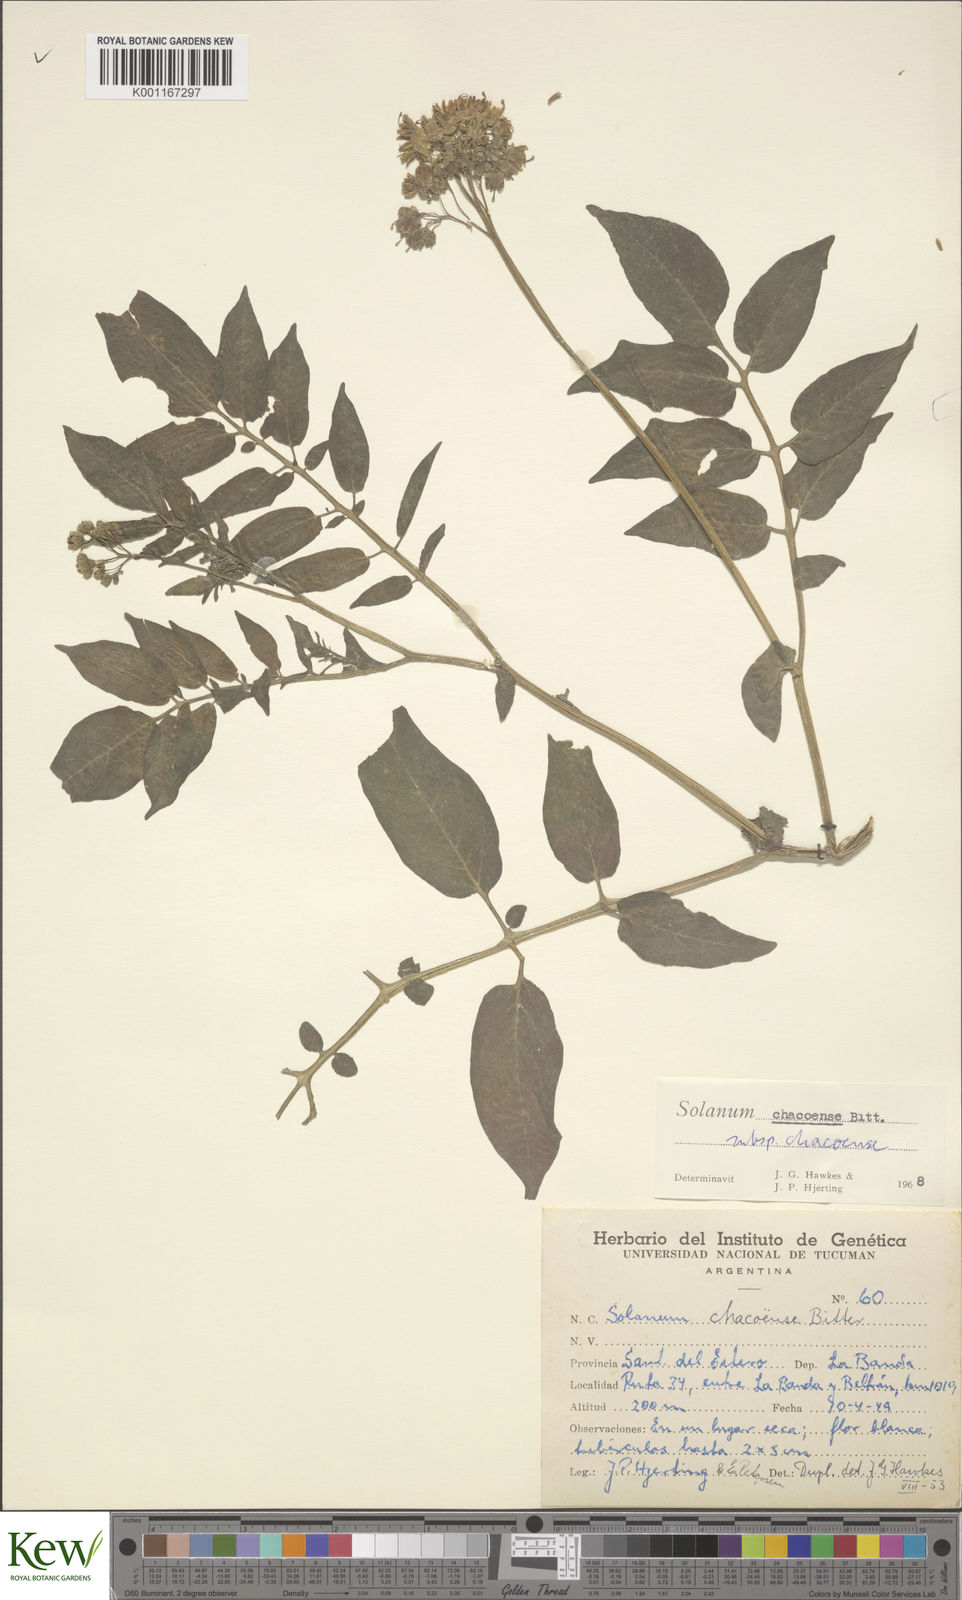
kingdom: Plantae
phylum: Tracheophyta
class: Magnoliopsida
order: Solanales
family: Solanaceae
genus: Solanum
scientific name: Solanum chacoense
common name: Chaco potato
